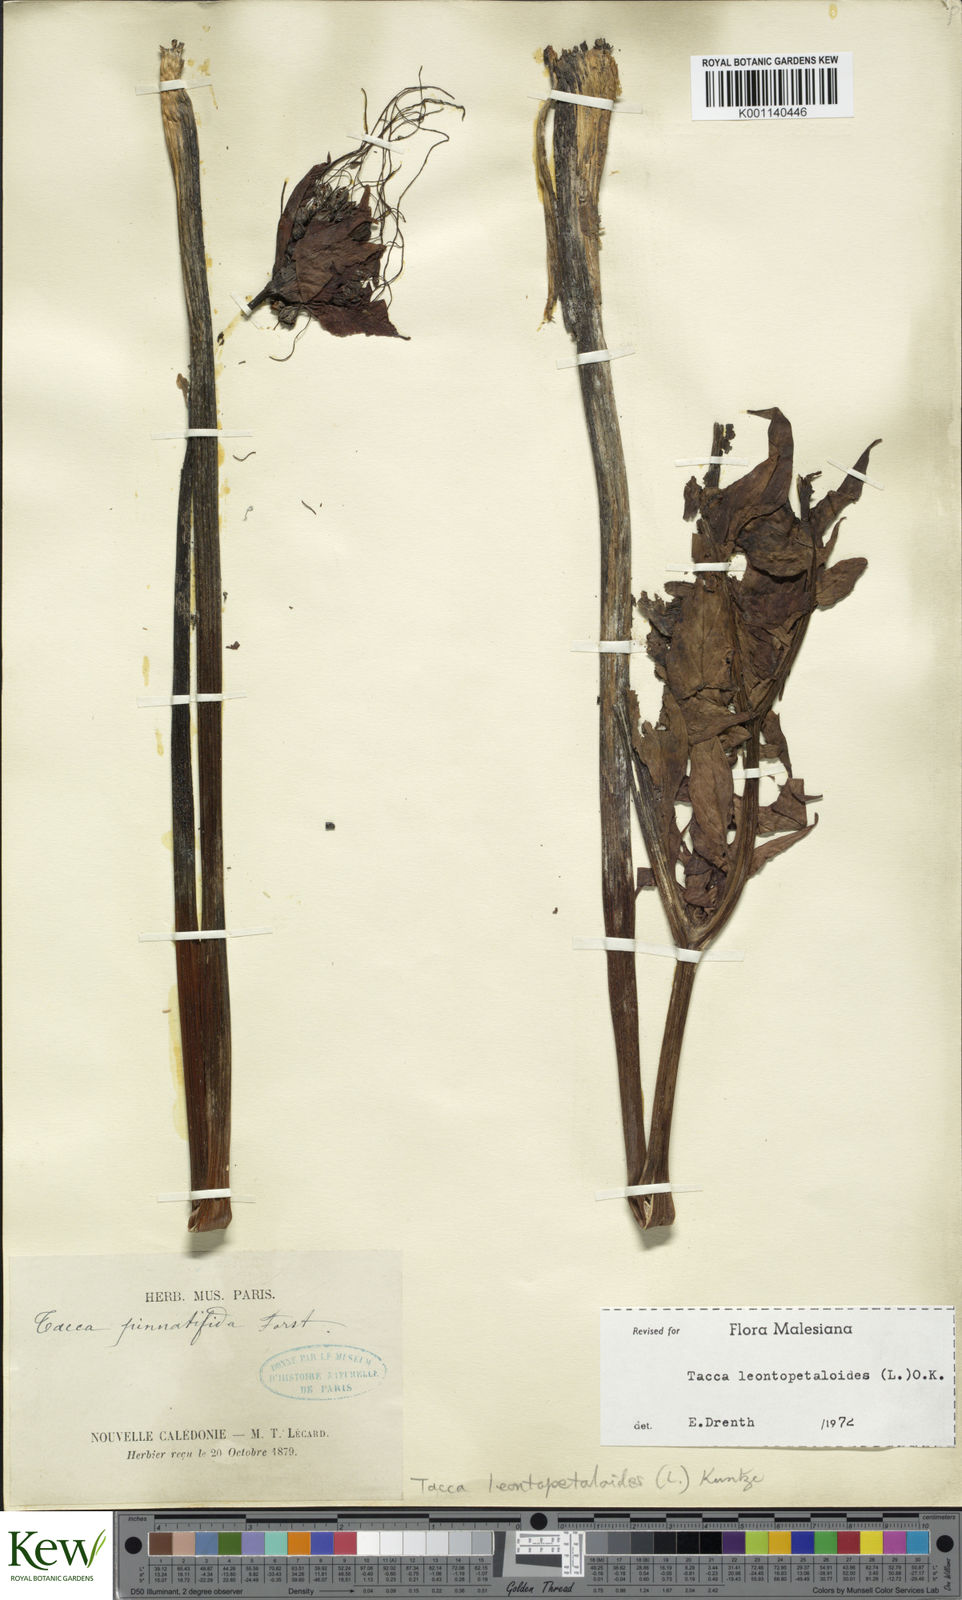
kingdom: Plantae
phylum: Tracheophyta
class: Liliopsida
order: Dioscoreales
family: Dioscoreaceae
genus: Tacca
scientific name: Tacca leontopetaloides
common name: Arrowroot
